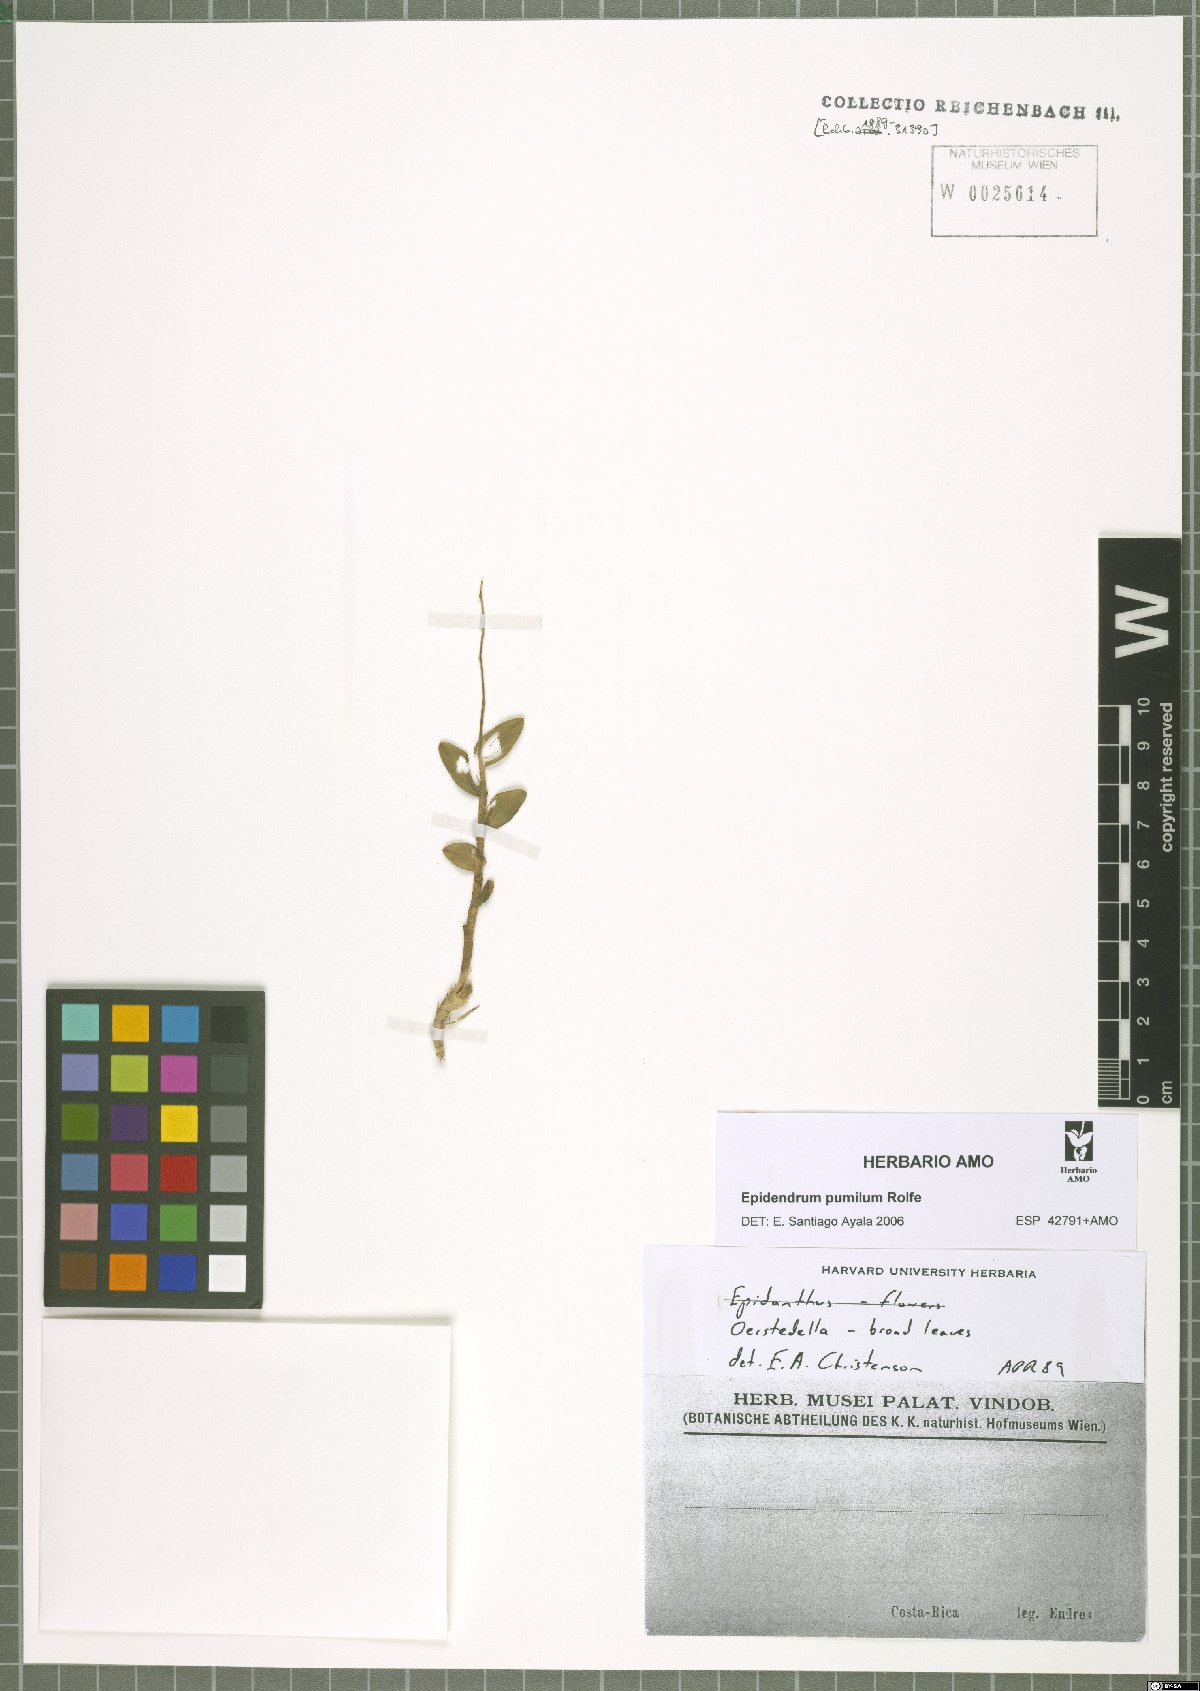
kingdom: Plantae
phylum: Tracheophyta
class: Liliopsida
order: Asparagales
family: Orchidaceae
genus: Epidendrum
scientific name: Epidendrum pumilum
